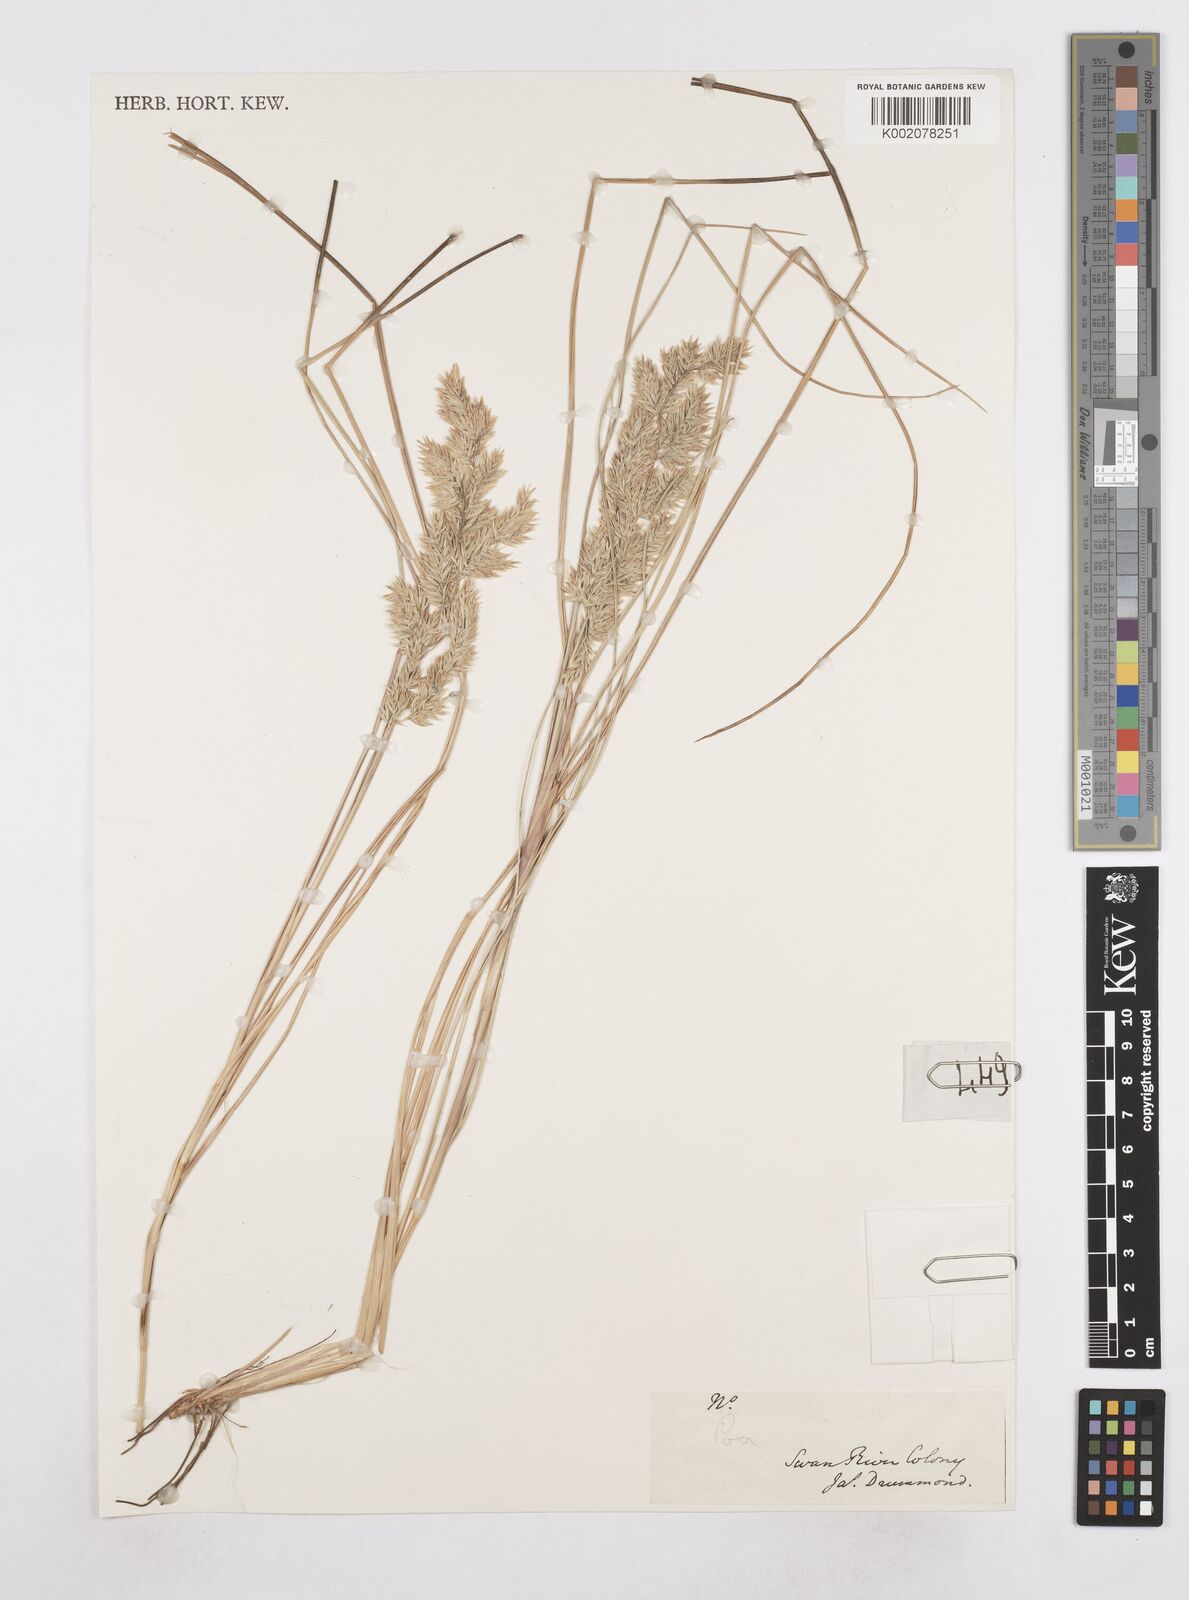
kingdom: Plantae
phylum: Tracheophyta
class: Liliopsida
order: Poales
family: Poaceae
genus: Poa
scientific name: Poa
